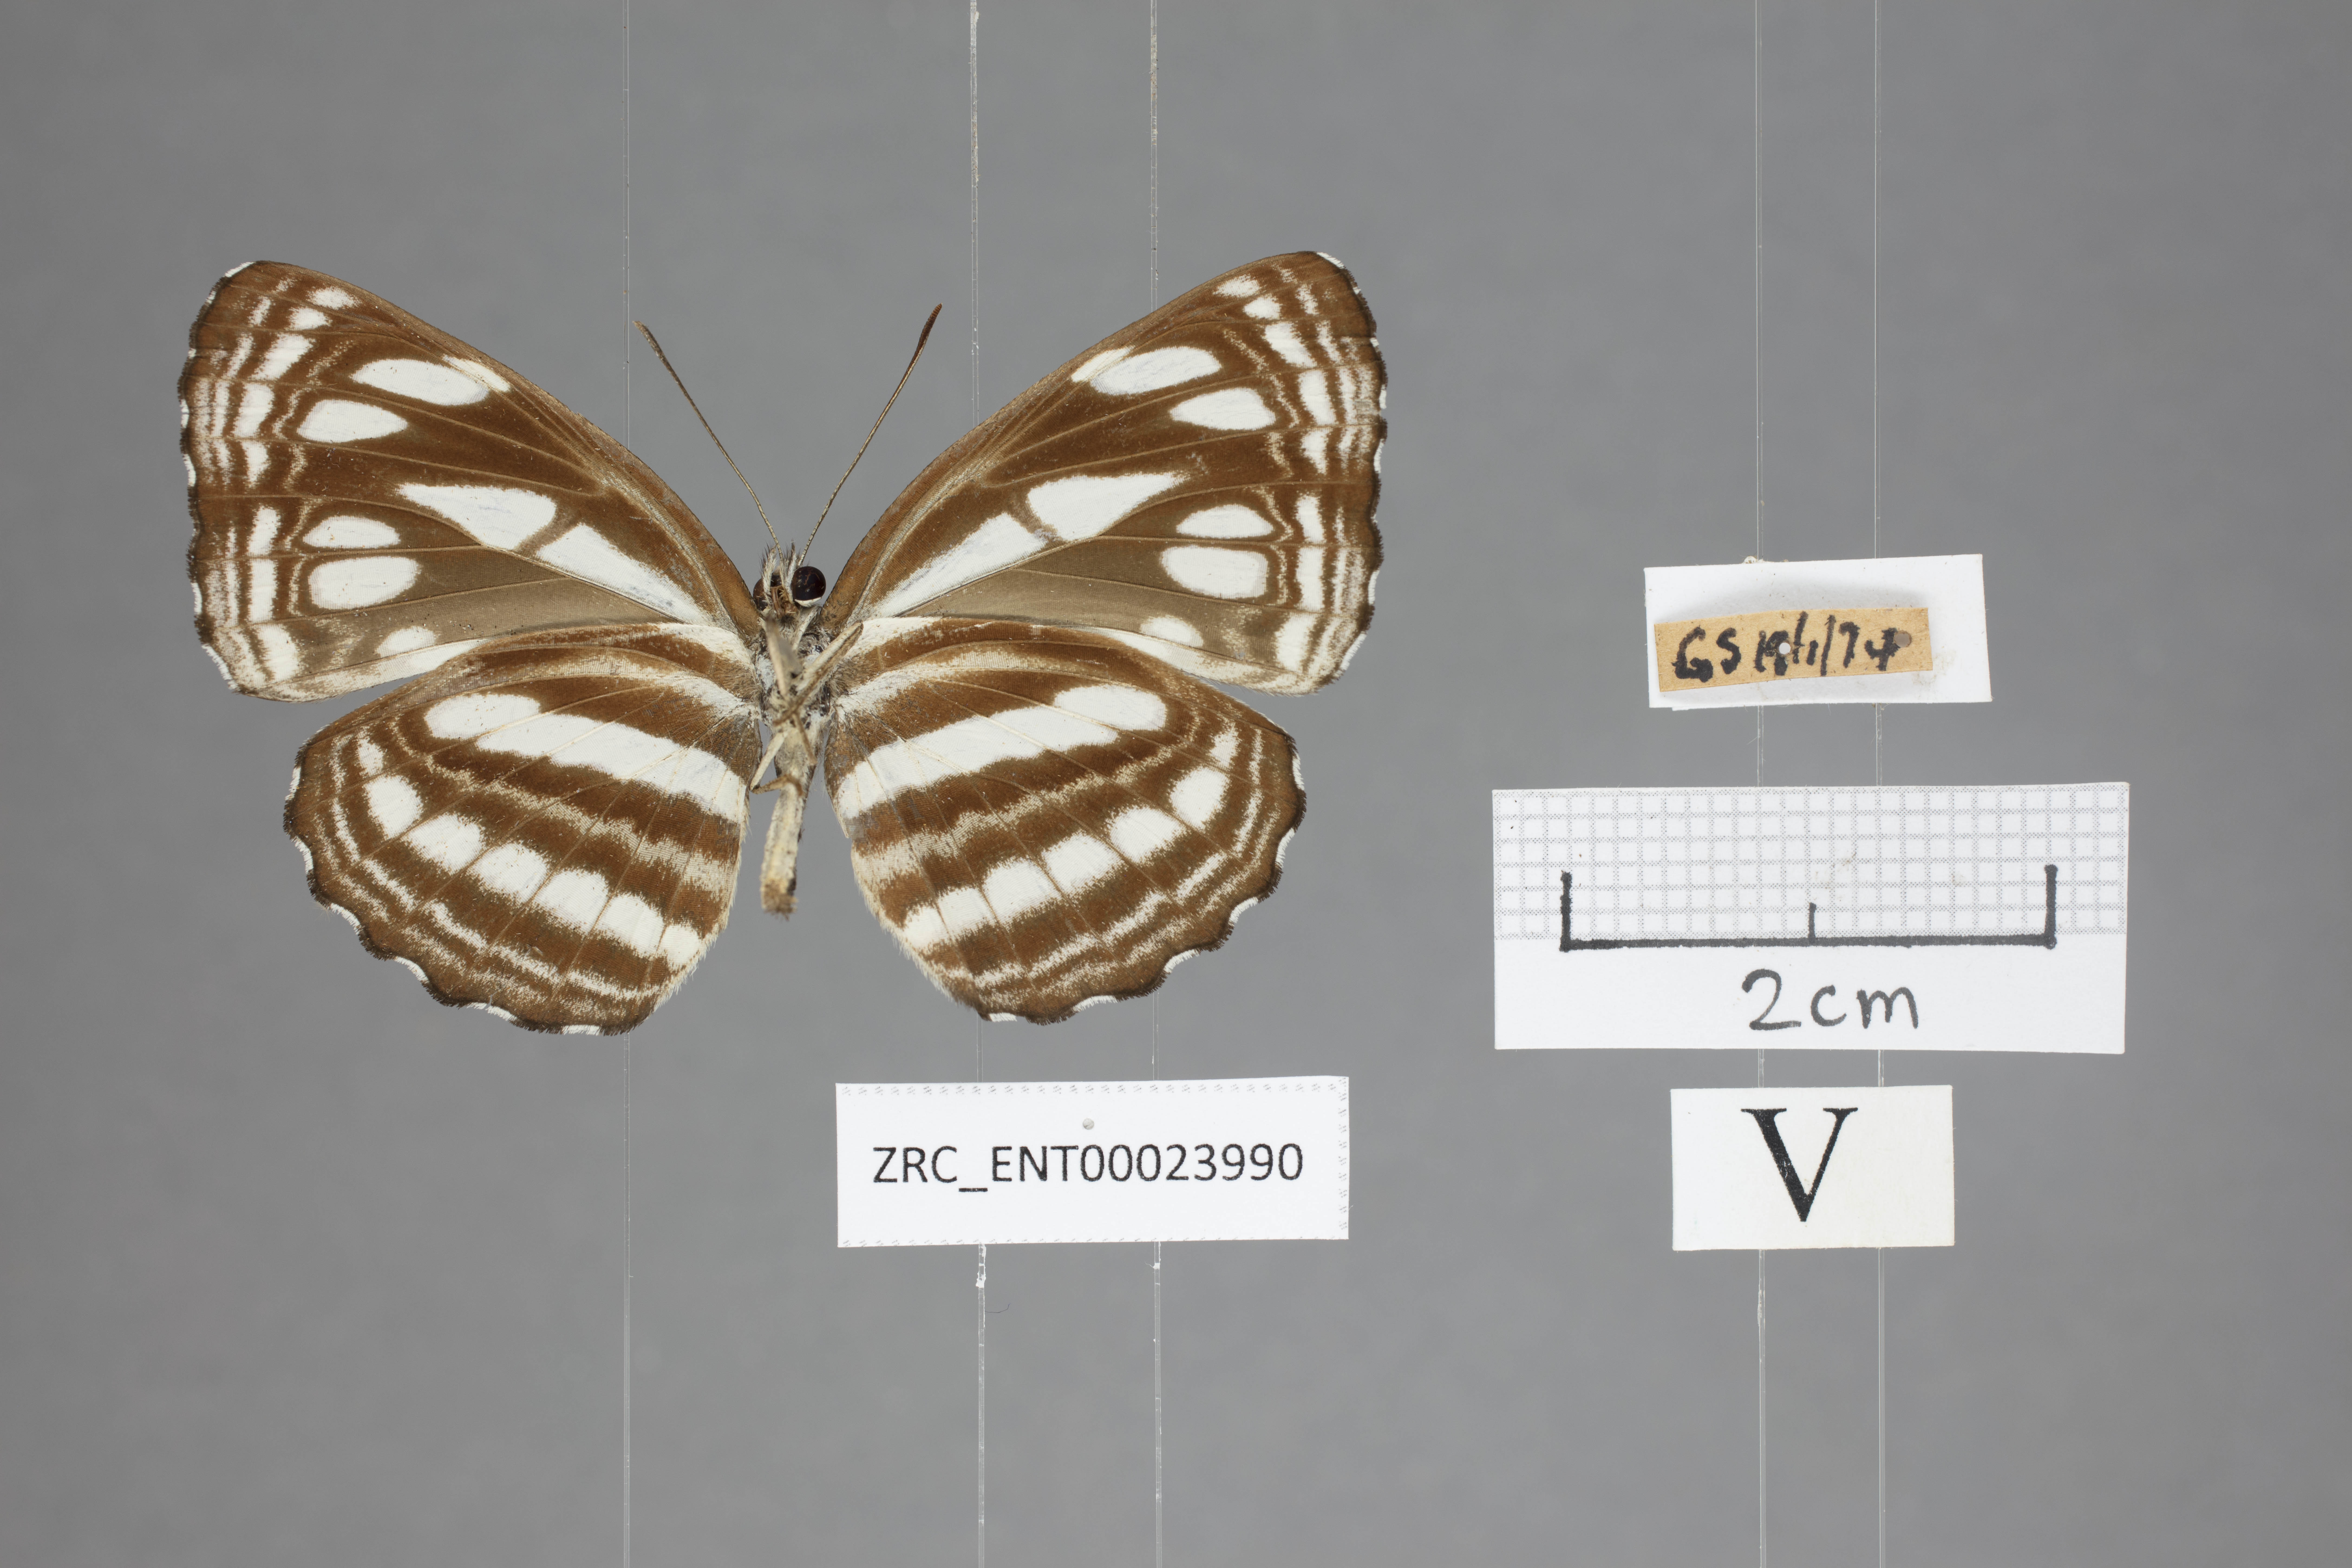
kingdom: Animalia
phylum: Arthropoda
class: Insecta
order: Lepidoptera
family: Nymphalidae
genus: Neptis
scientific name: Neptis duryodana
